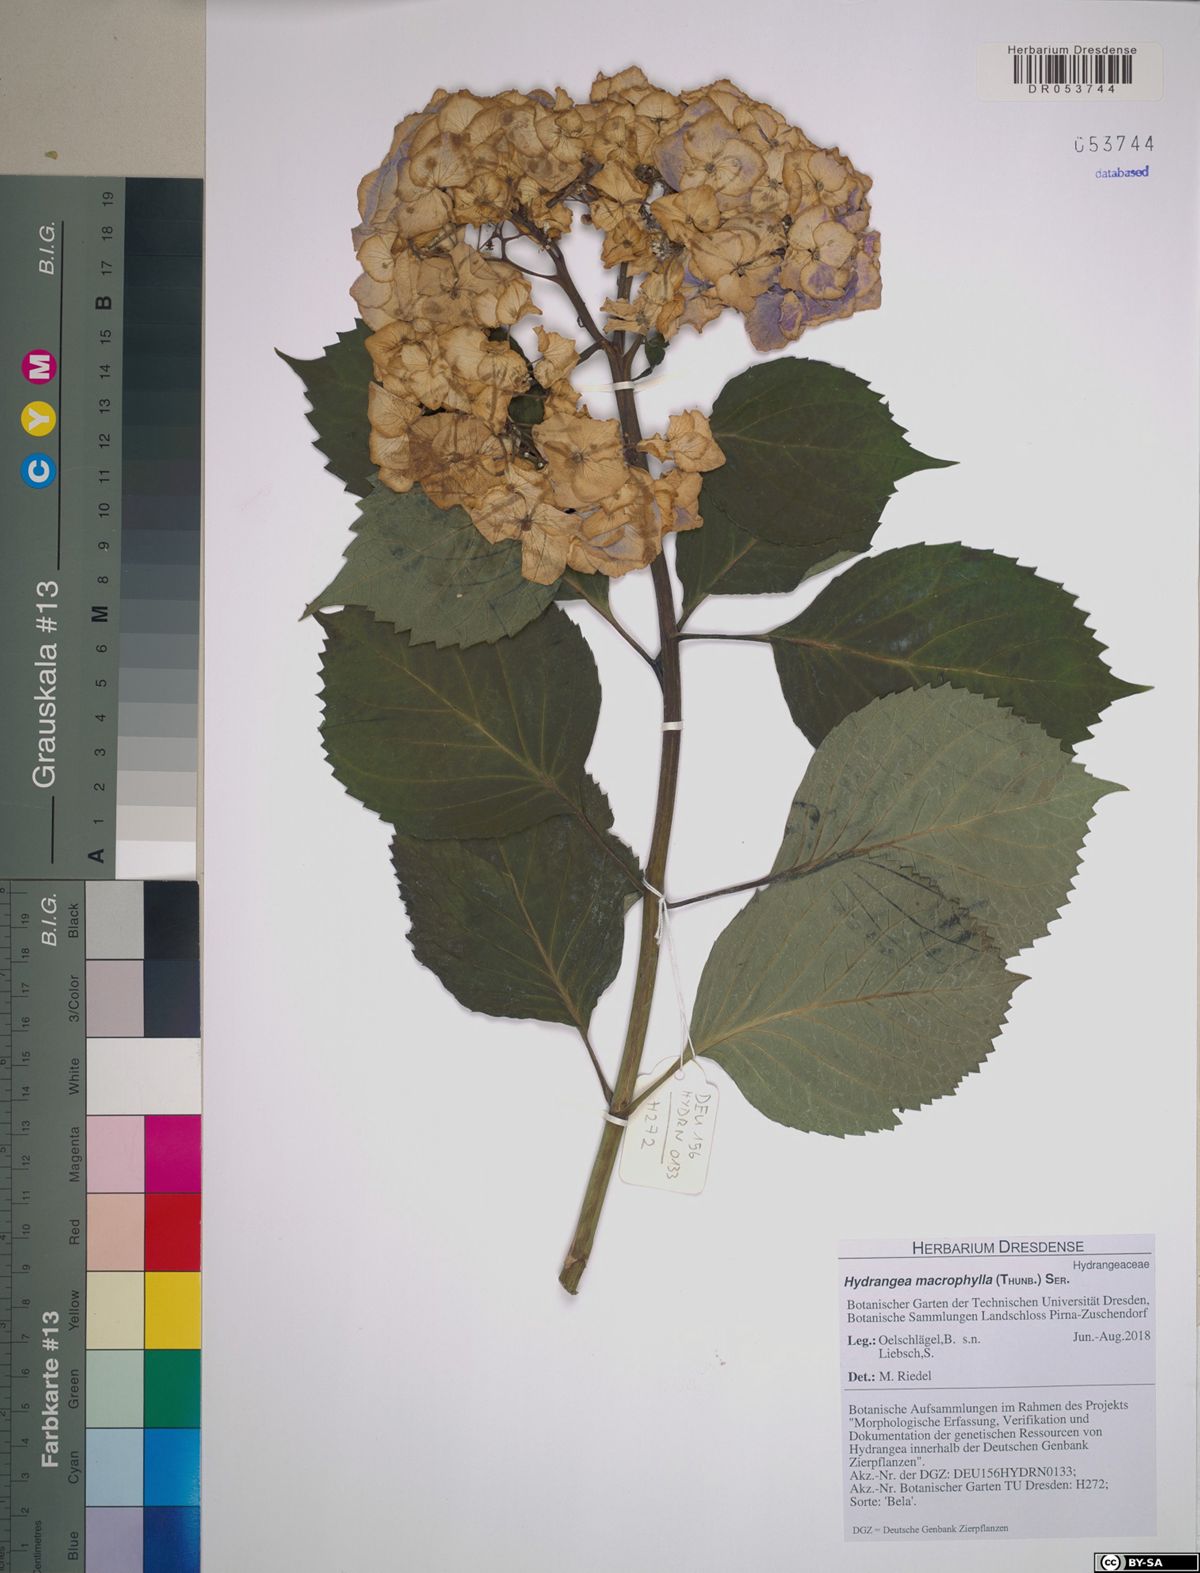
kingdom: Plantae
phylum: Tracheophyta
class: Magnoliopsida
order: Cornales
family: Hydrangeaceae
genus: Hydrangea
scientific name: Hydrangea macrophylla
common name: Hydrangea
